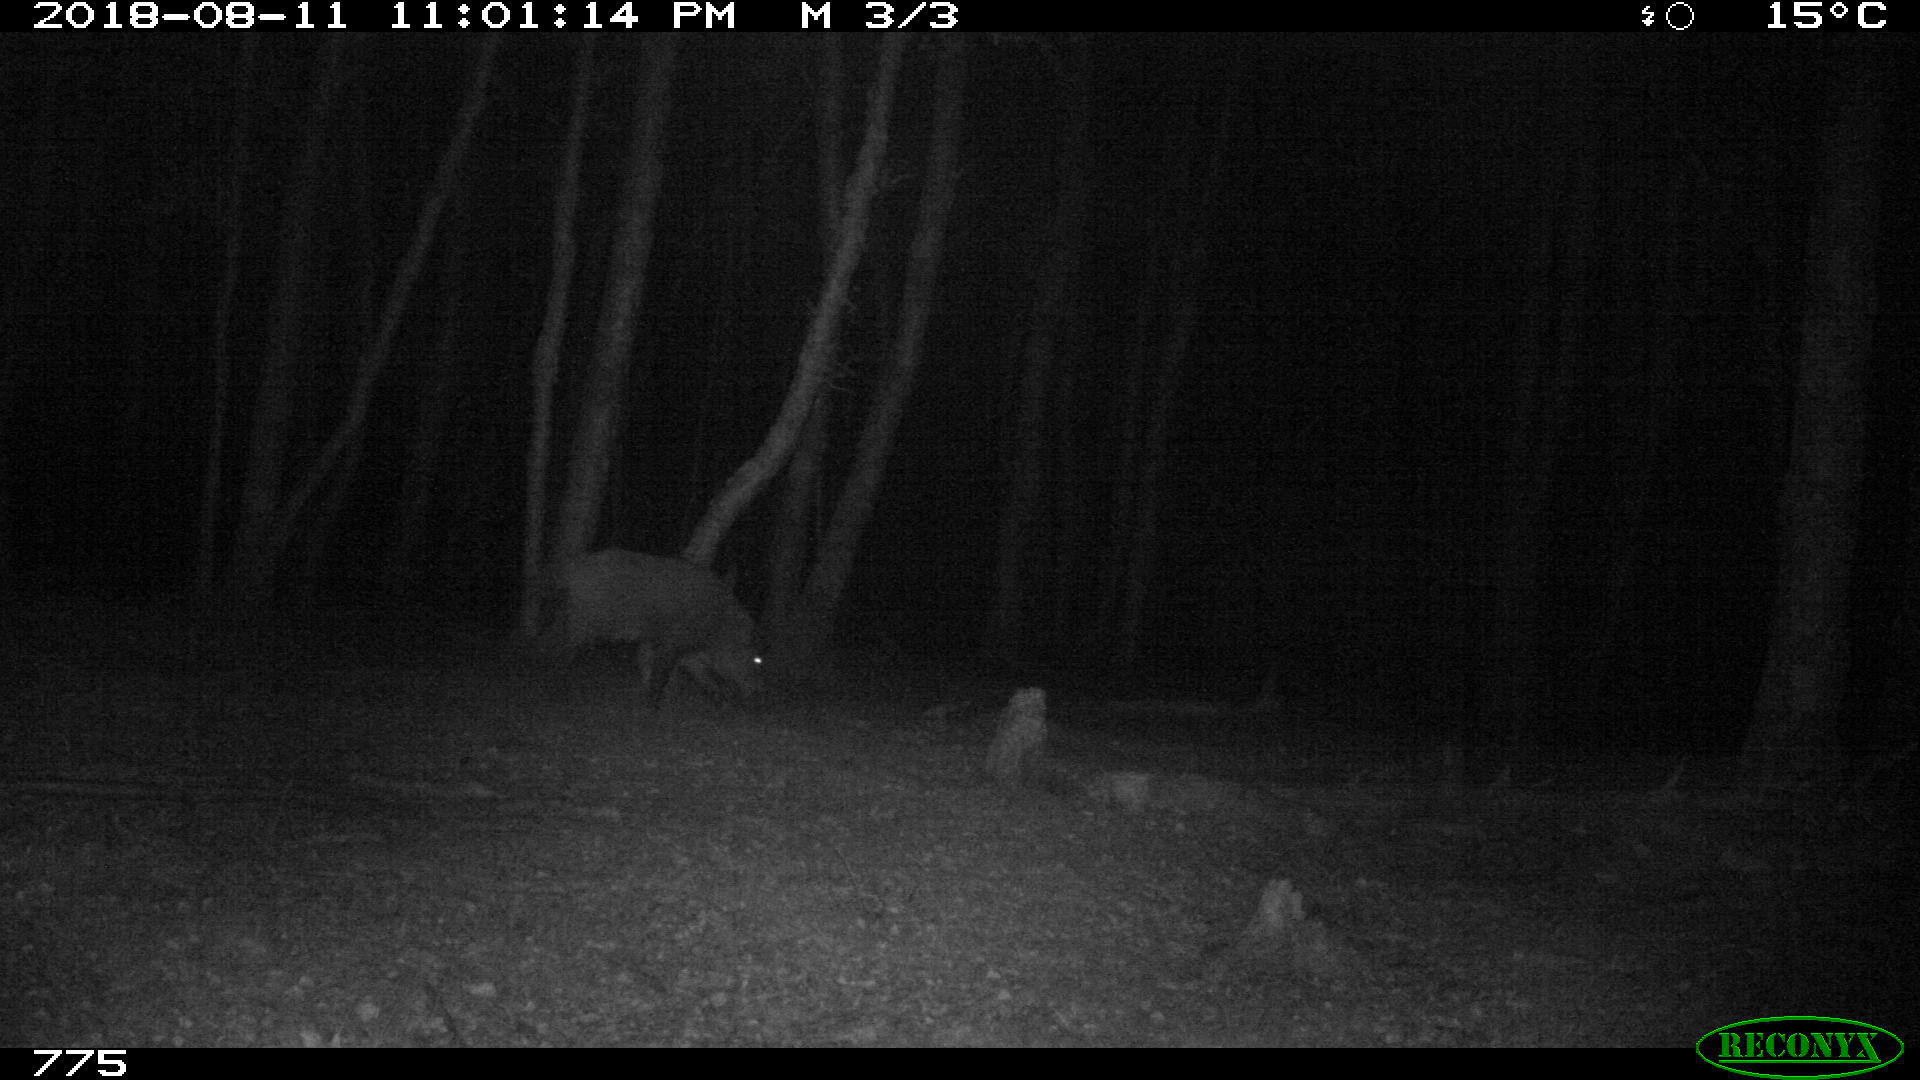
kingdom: Animalia
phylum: Chordata
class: Mammalia
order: Artiodactyla
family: Suidae
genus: Sus
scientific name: Sus scrofa
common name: Wild boar
